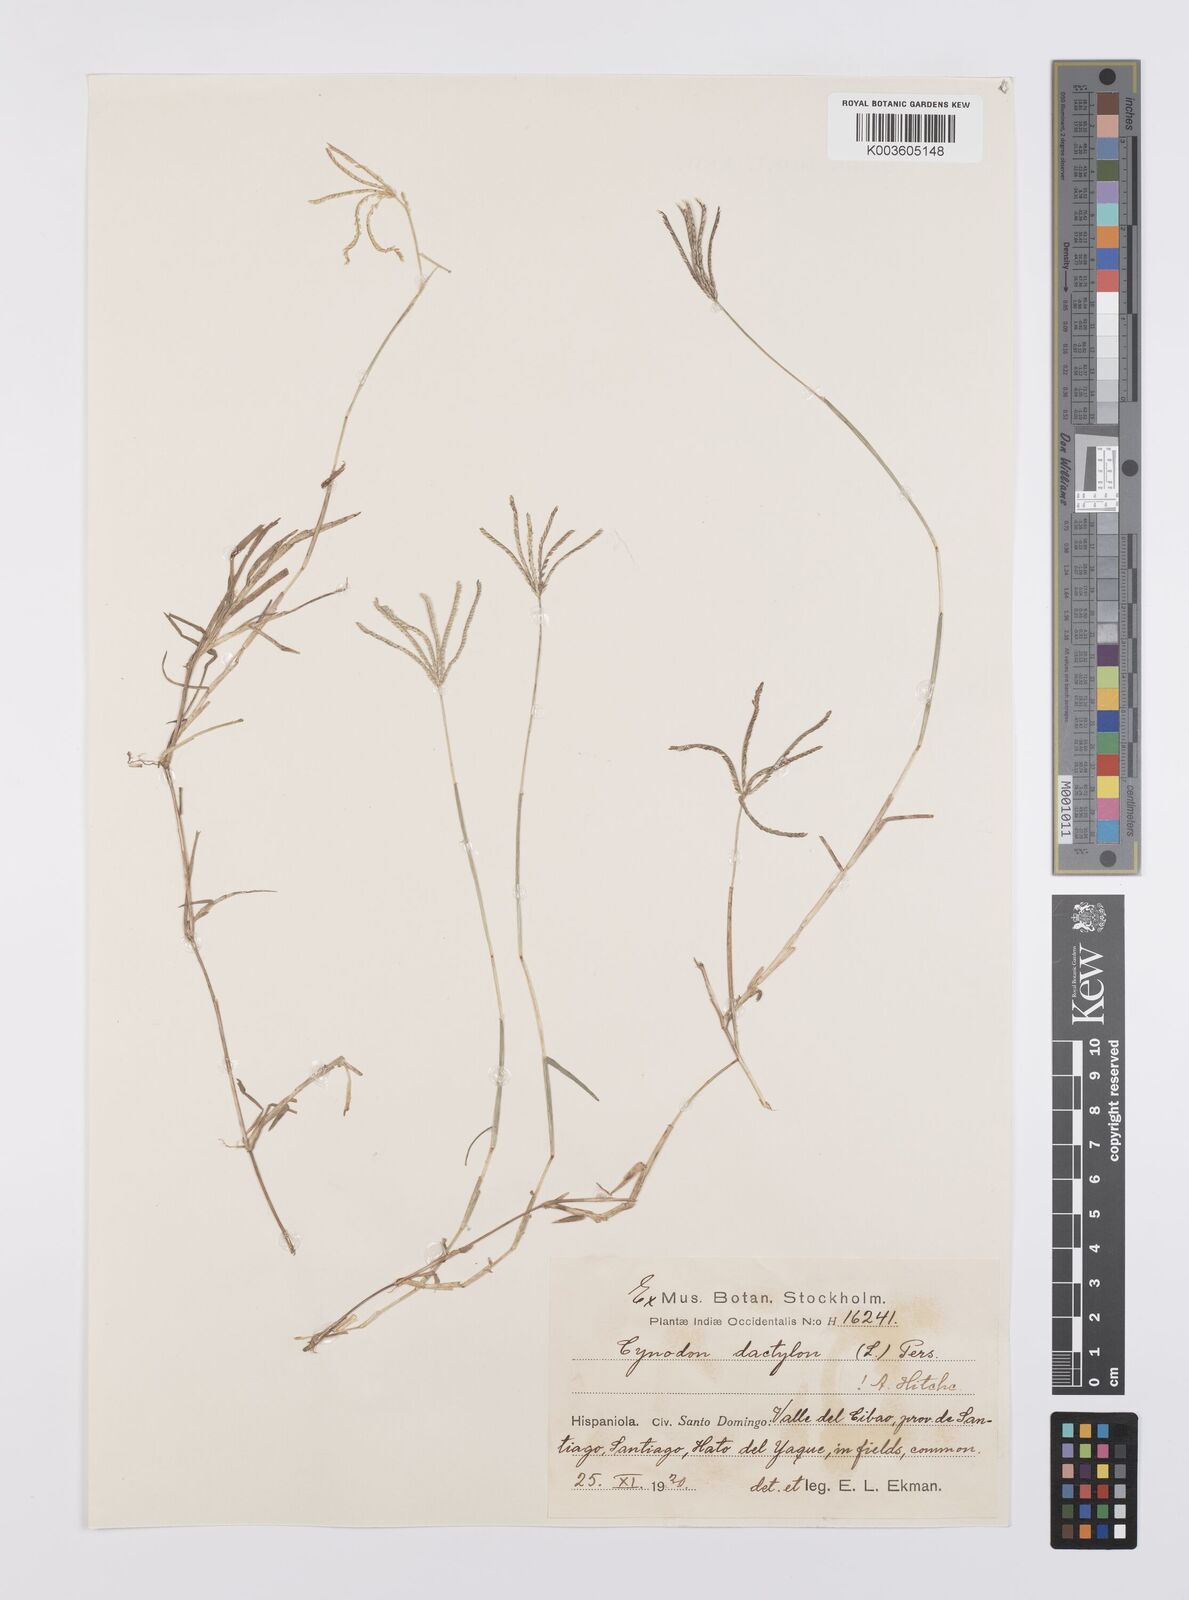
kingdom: Plantae
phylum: Tracheophyta
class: Liliopsida
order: Poales
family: Poaceae
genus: Cynodon
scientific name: Cynodon dactylon
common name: Bermuda grass
